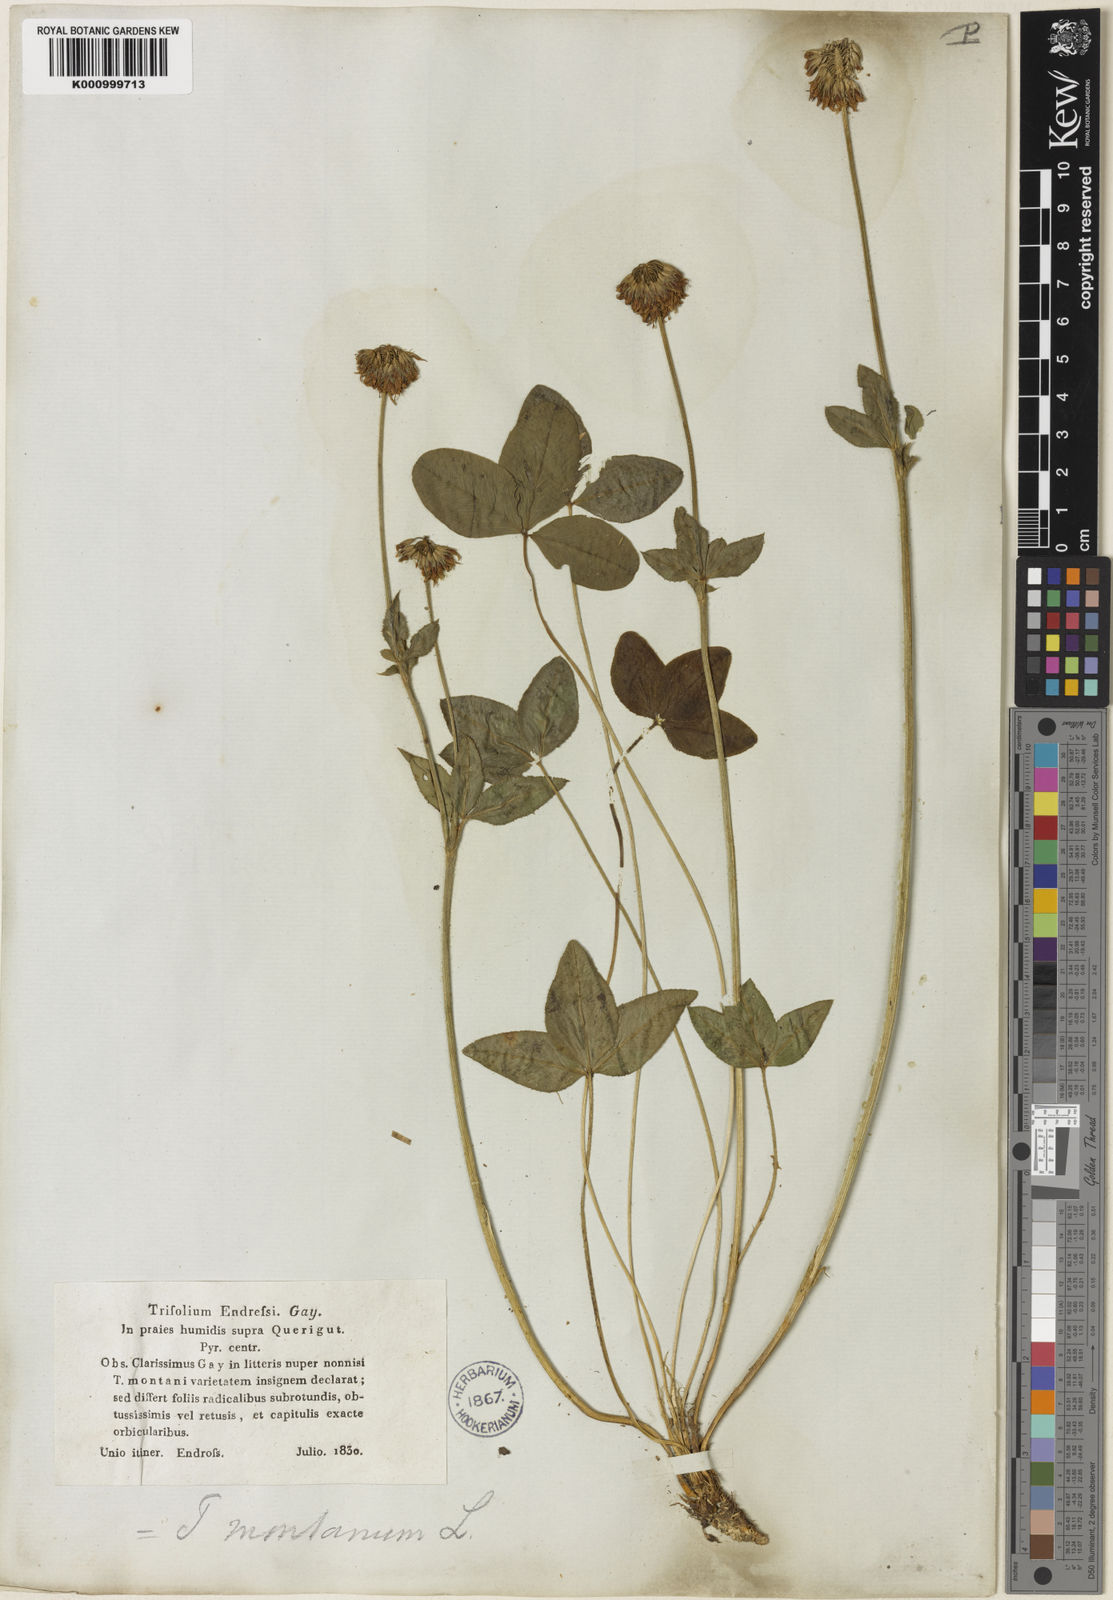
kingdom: Plantae
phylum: Tracheophyta
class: Magnoliopsida
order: Fabales
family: Fabaceae
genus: Trifolium
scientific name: Trifolium montanum
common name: Mountain clover
